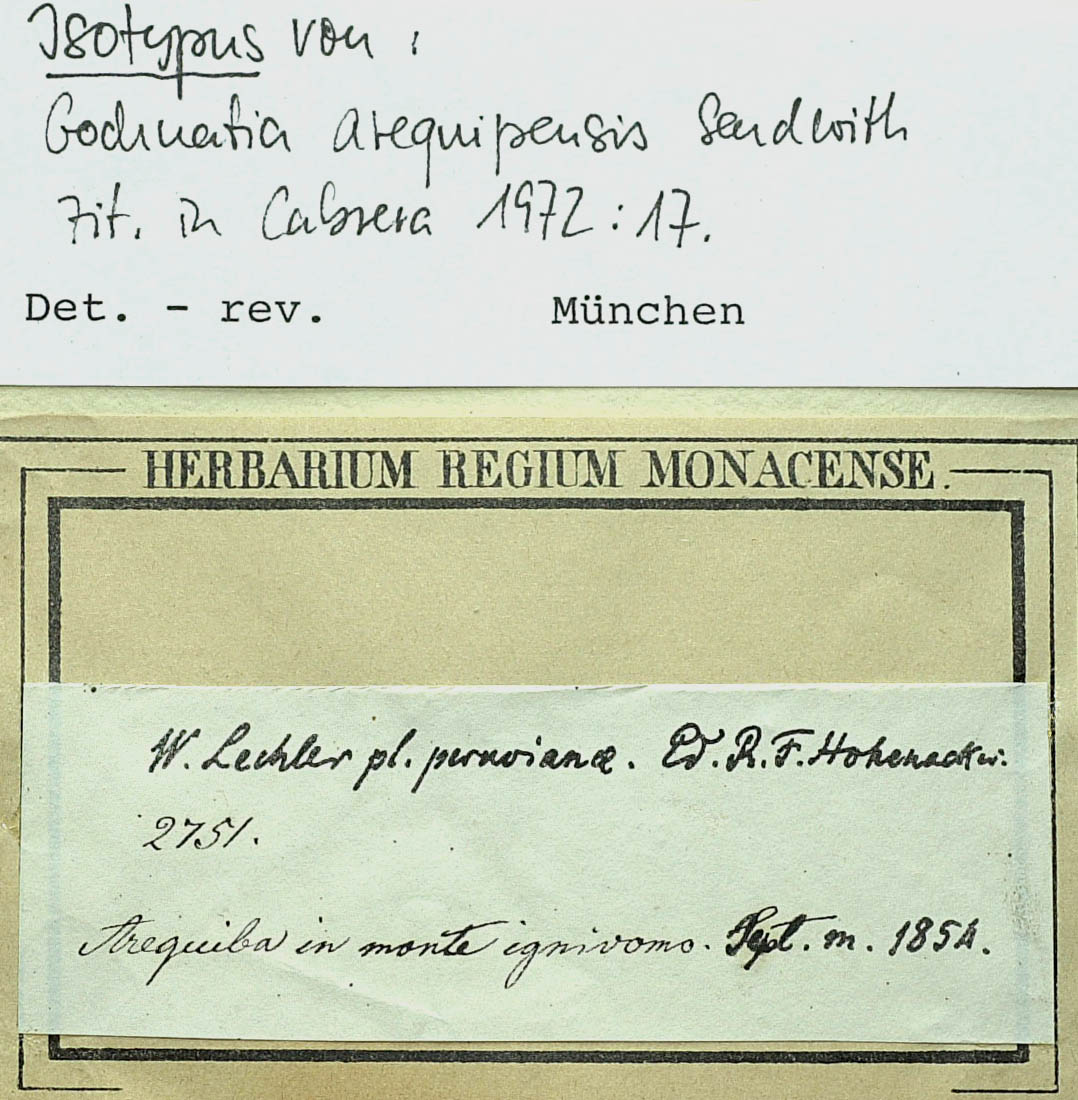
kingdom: Plantae
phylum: Tracheophyta
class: Magnoliopsida
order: Asterales
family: Asteraceae
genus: Gochnatia
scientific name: Gochnatia arequipensis
